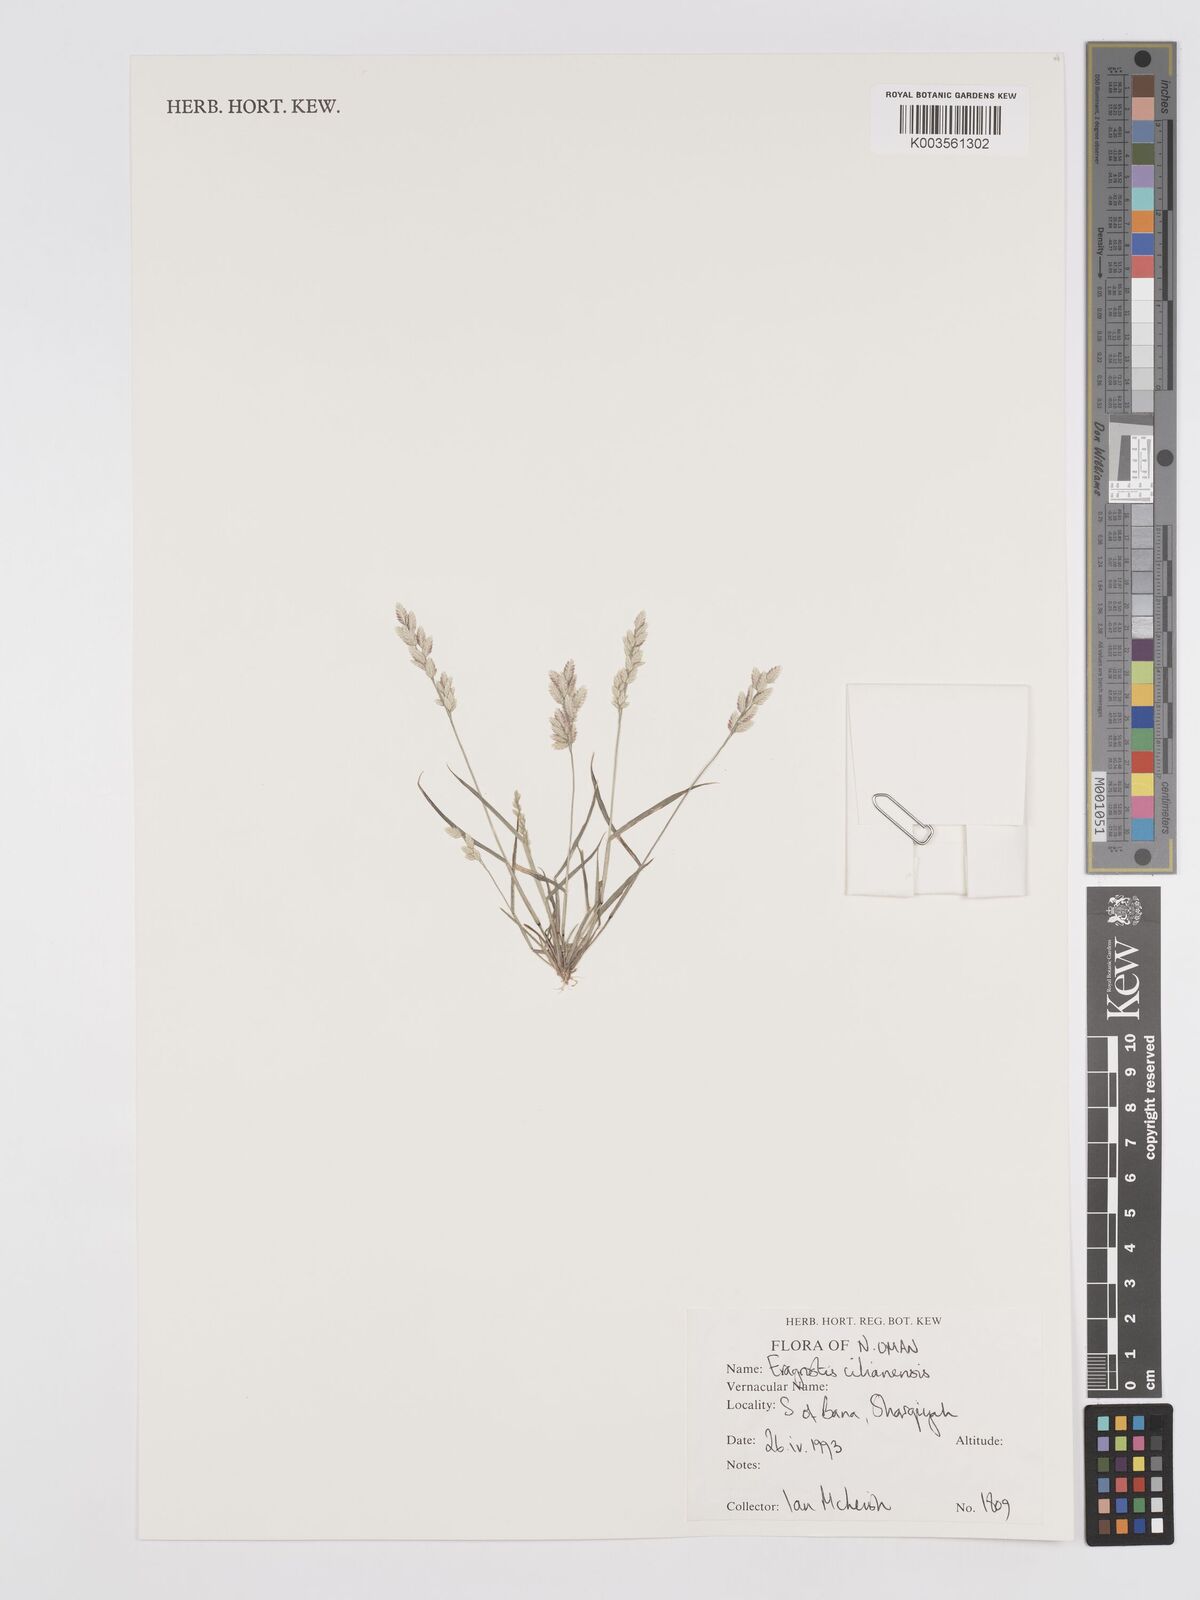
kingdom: Plantae
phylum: Tracheophyta
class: Liliopsida
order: Poales
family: Poaceae
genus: Eragrostis
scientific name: Eragrostis cilianensis
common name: Stinkgrass
